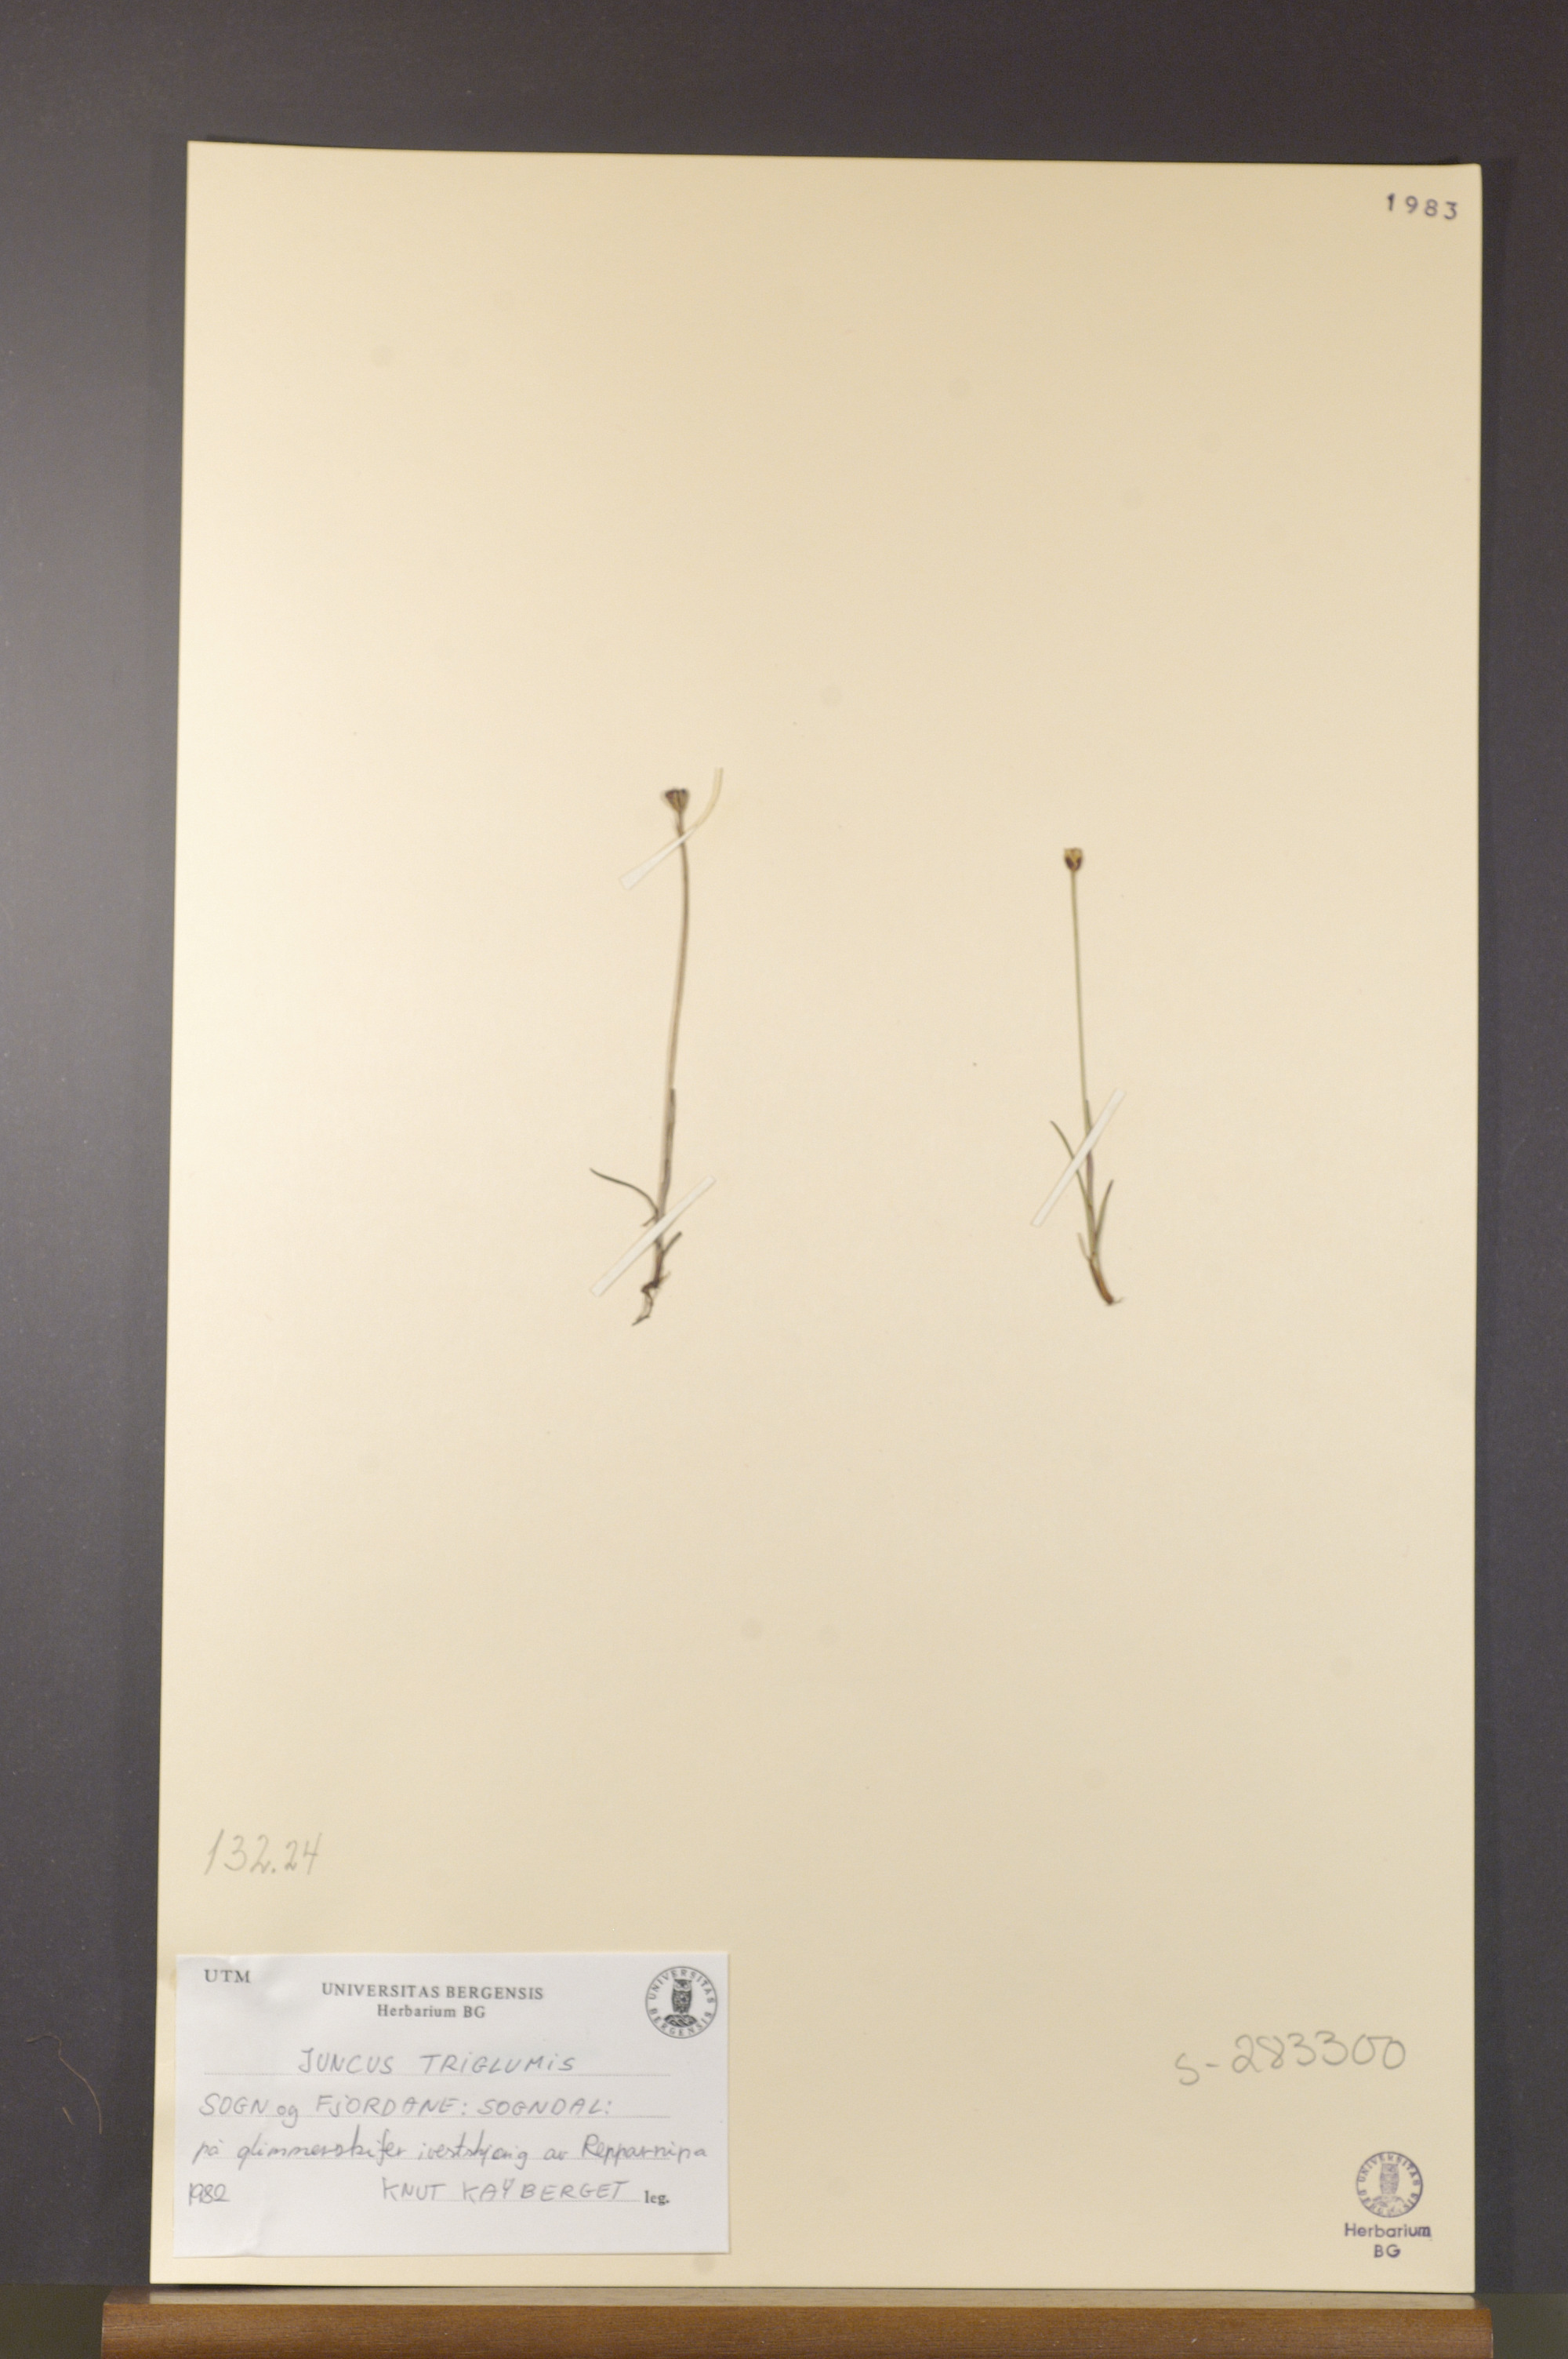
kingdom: Plantae
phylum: Tracheophyta
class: Liliopsida
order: Poales
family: Juncaceae
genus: Juncus
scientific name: Juncus triglumis
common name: Three-flowered rush
